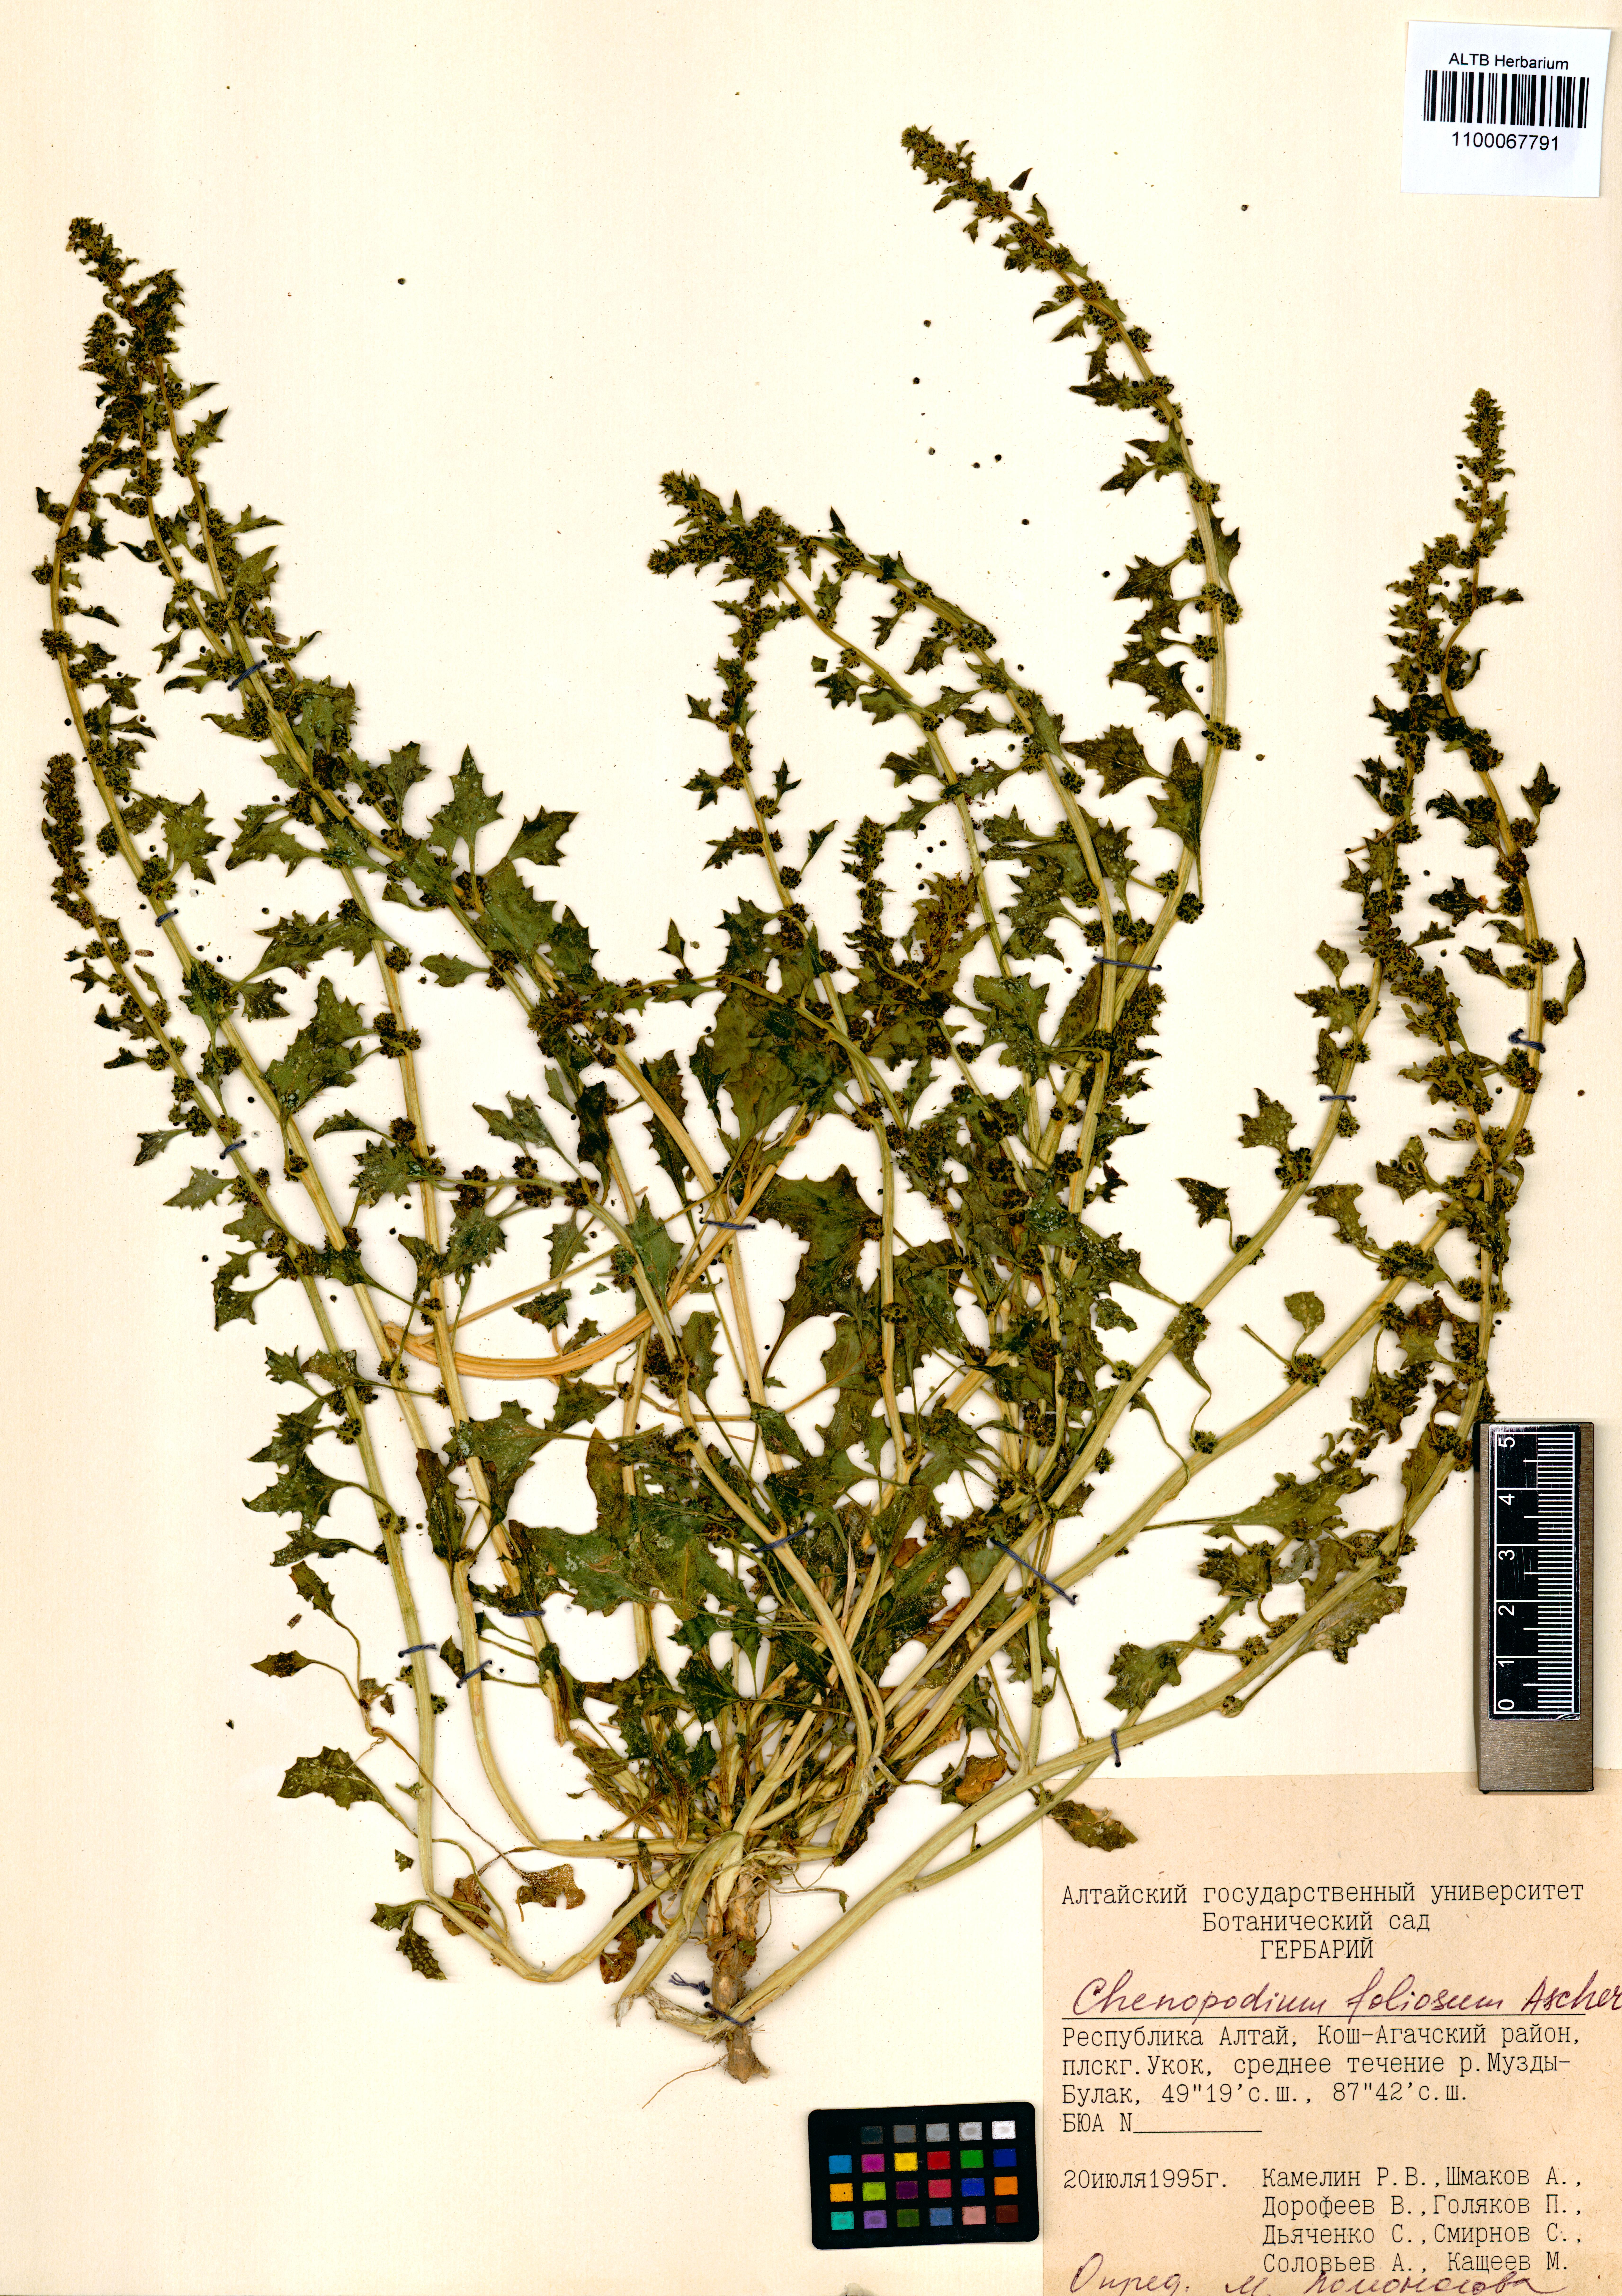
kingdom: Plantae
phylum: Tracheophyta
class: Magnoliopsida
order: Caryophyllales
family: Amaranthaceae
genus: Blitum
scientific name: Blitum virgatum
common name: Strawberry goosefoot
